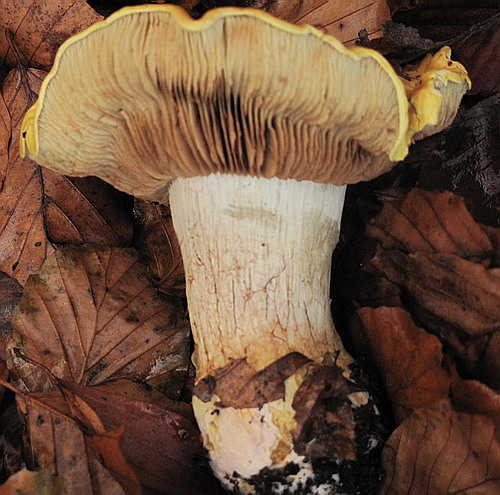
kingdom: Fungi
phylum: Basidiomycota
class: Agaricomycetes
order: Agaricales
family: Cortinariaceae
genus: Cortinarius
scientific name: Cortinarius bergeronii
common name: prægtig slørhat
